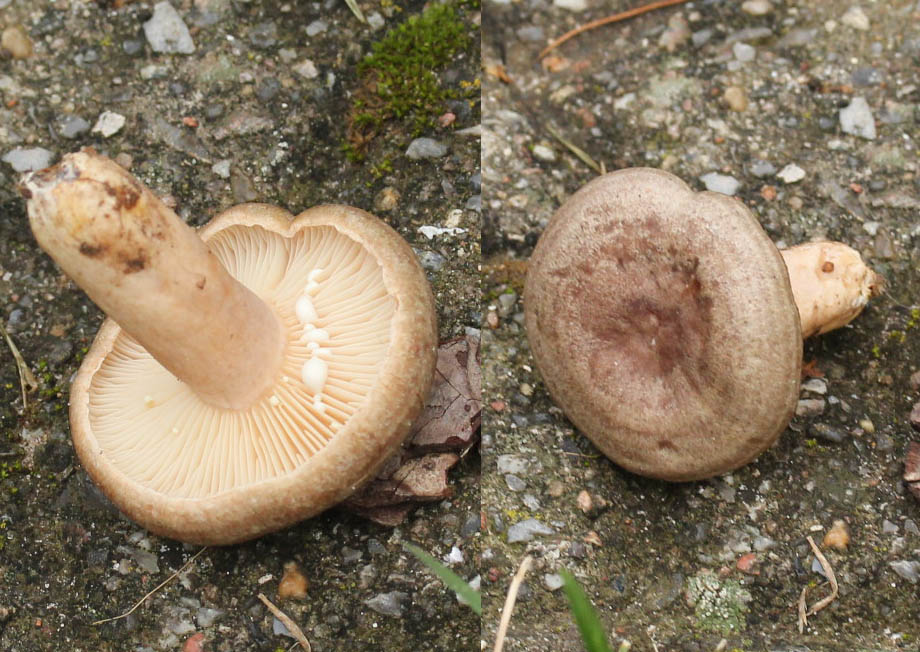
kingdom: Fungi
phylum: Basidiomycota
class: Agaricomycetes
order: Russulales
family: Russulaceae
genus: Lactarius
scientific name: Lactarius circellatus
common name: avnbøg-mælkehat
